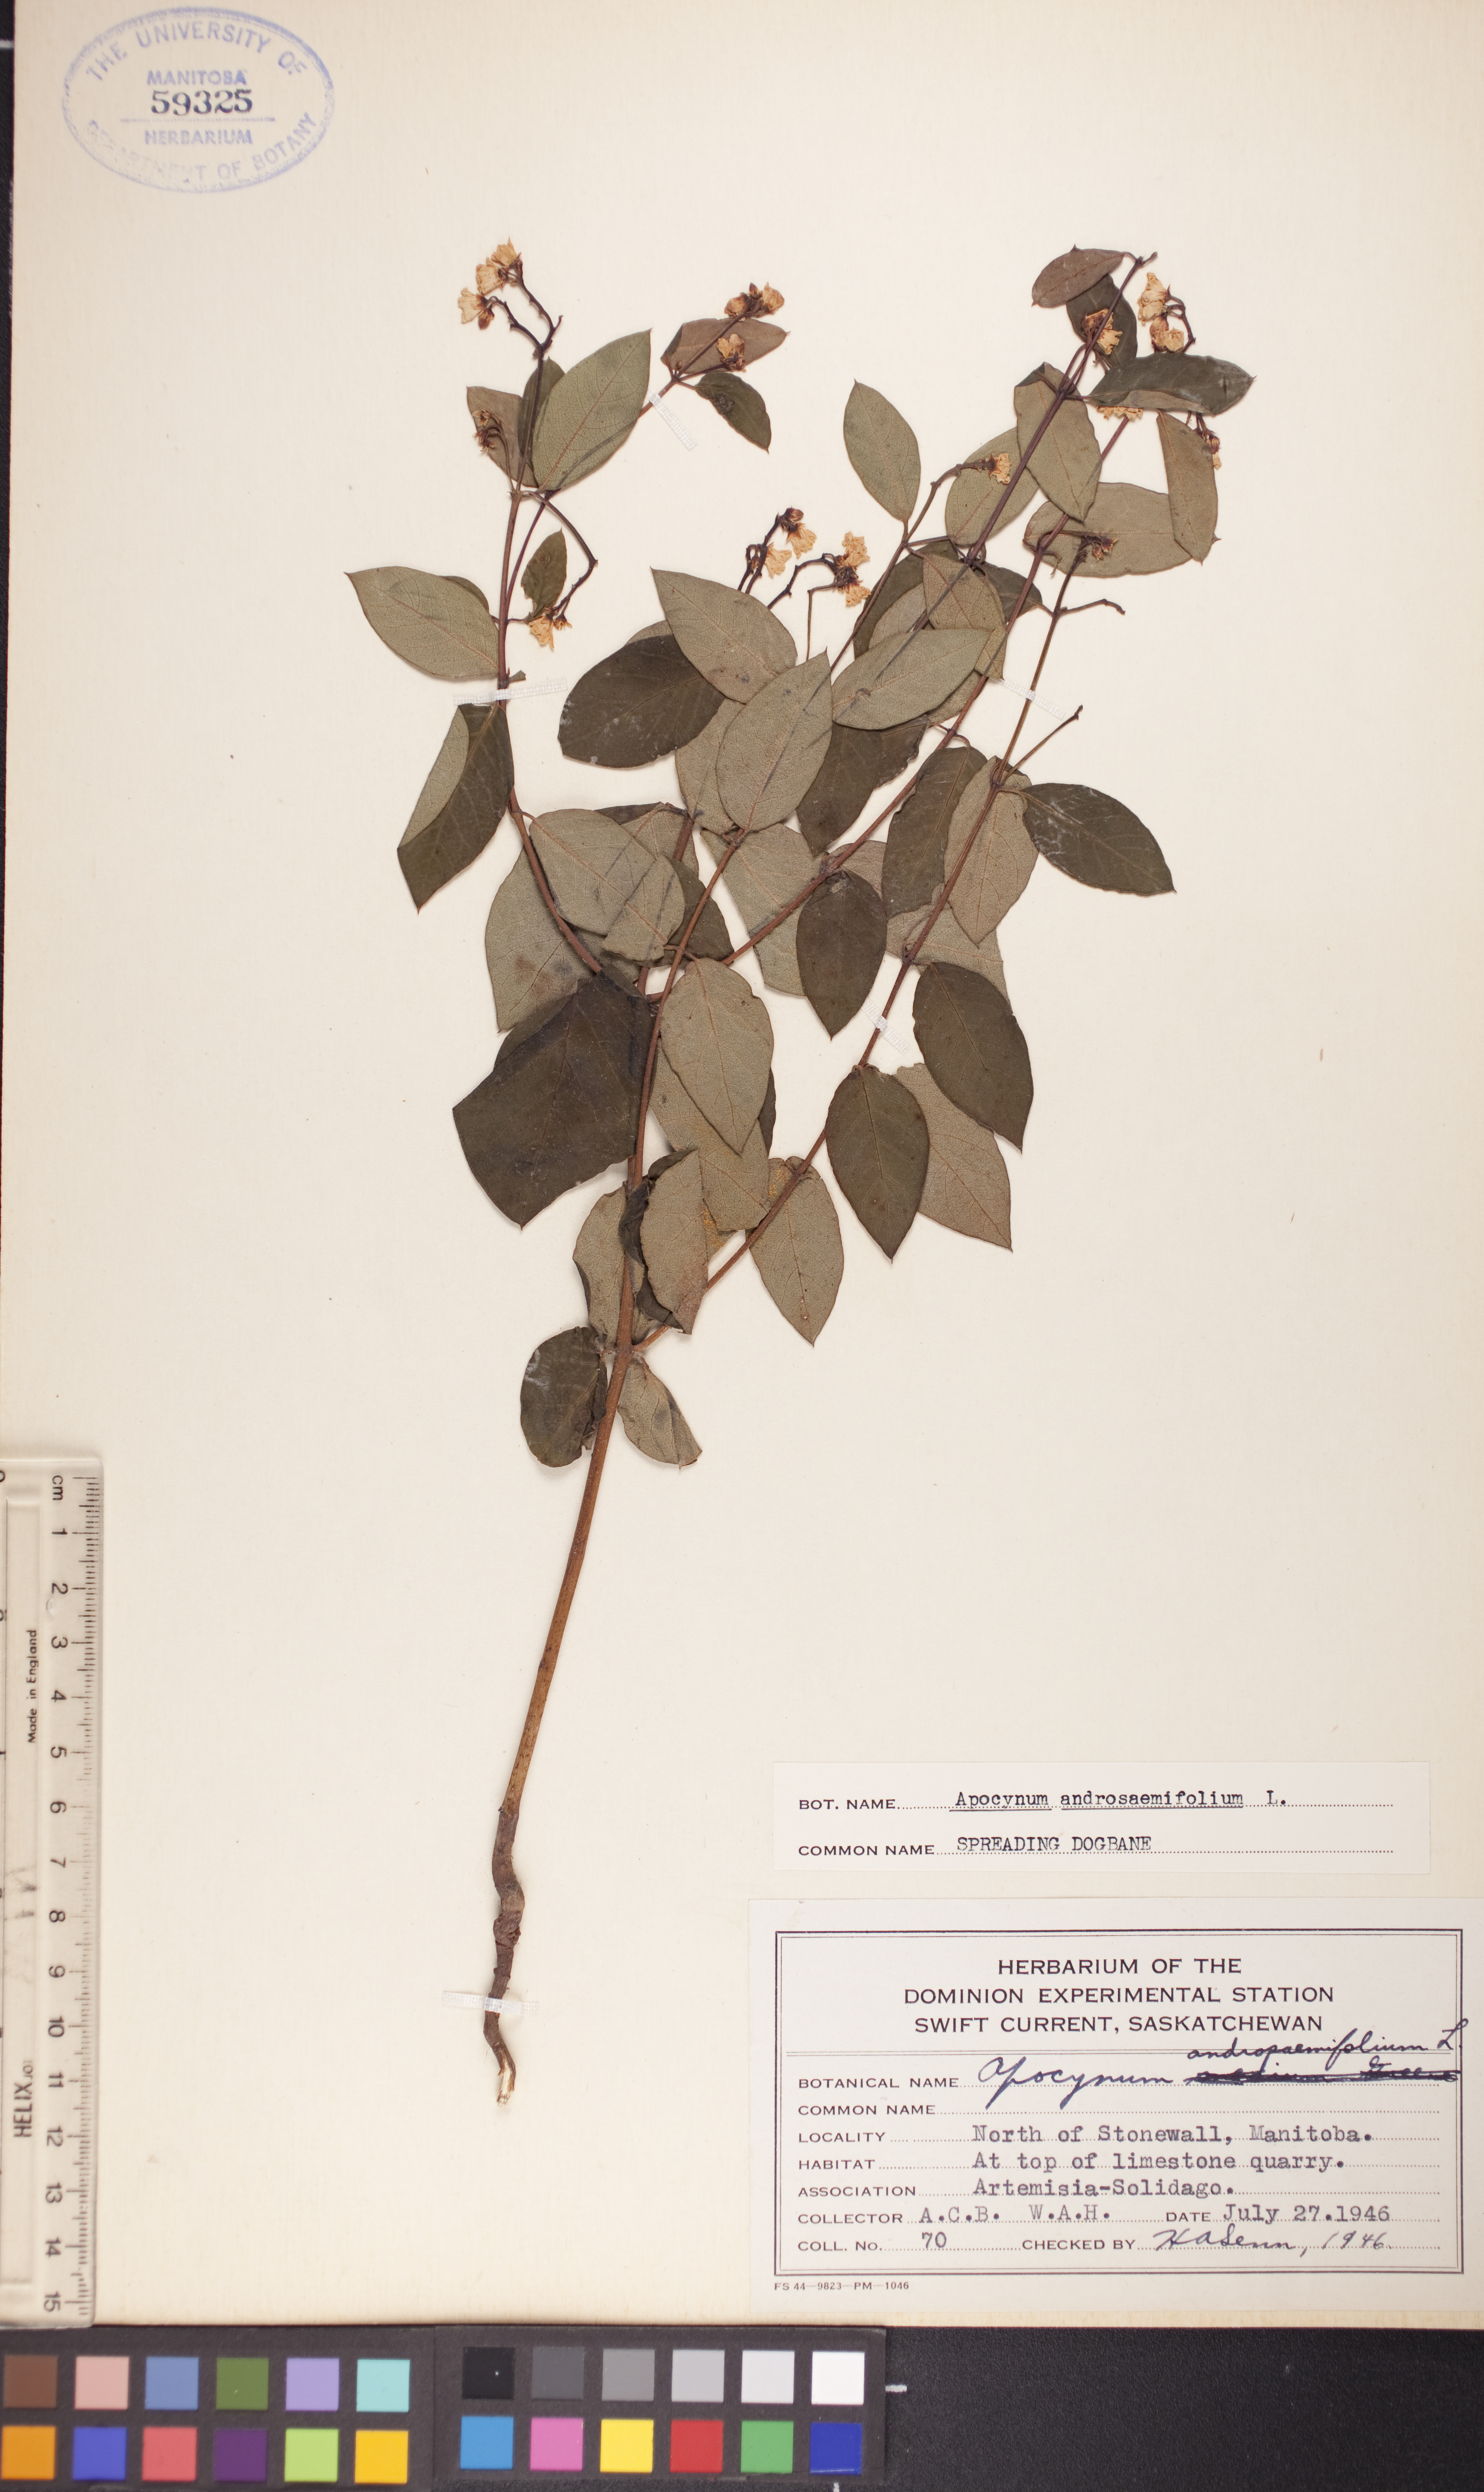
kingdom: Plantae
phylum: Tracheophyta
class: Magnoliopsida
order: Gentianales
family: Apocynaceae
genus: Apocynum
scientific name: Apocynum androsaemifolium
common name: Spreading dogbane
